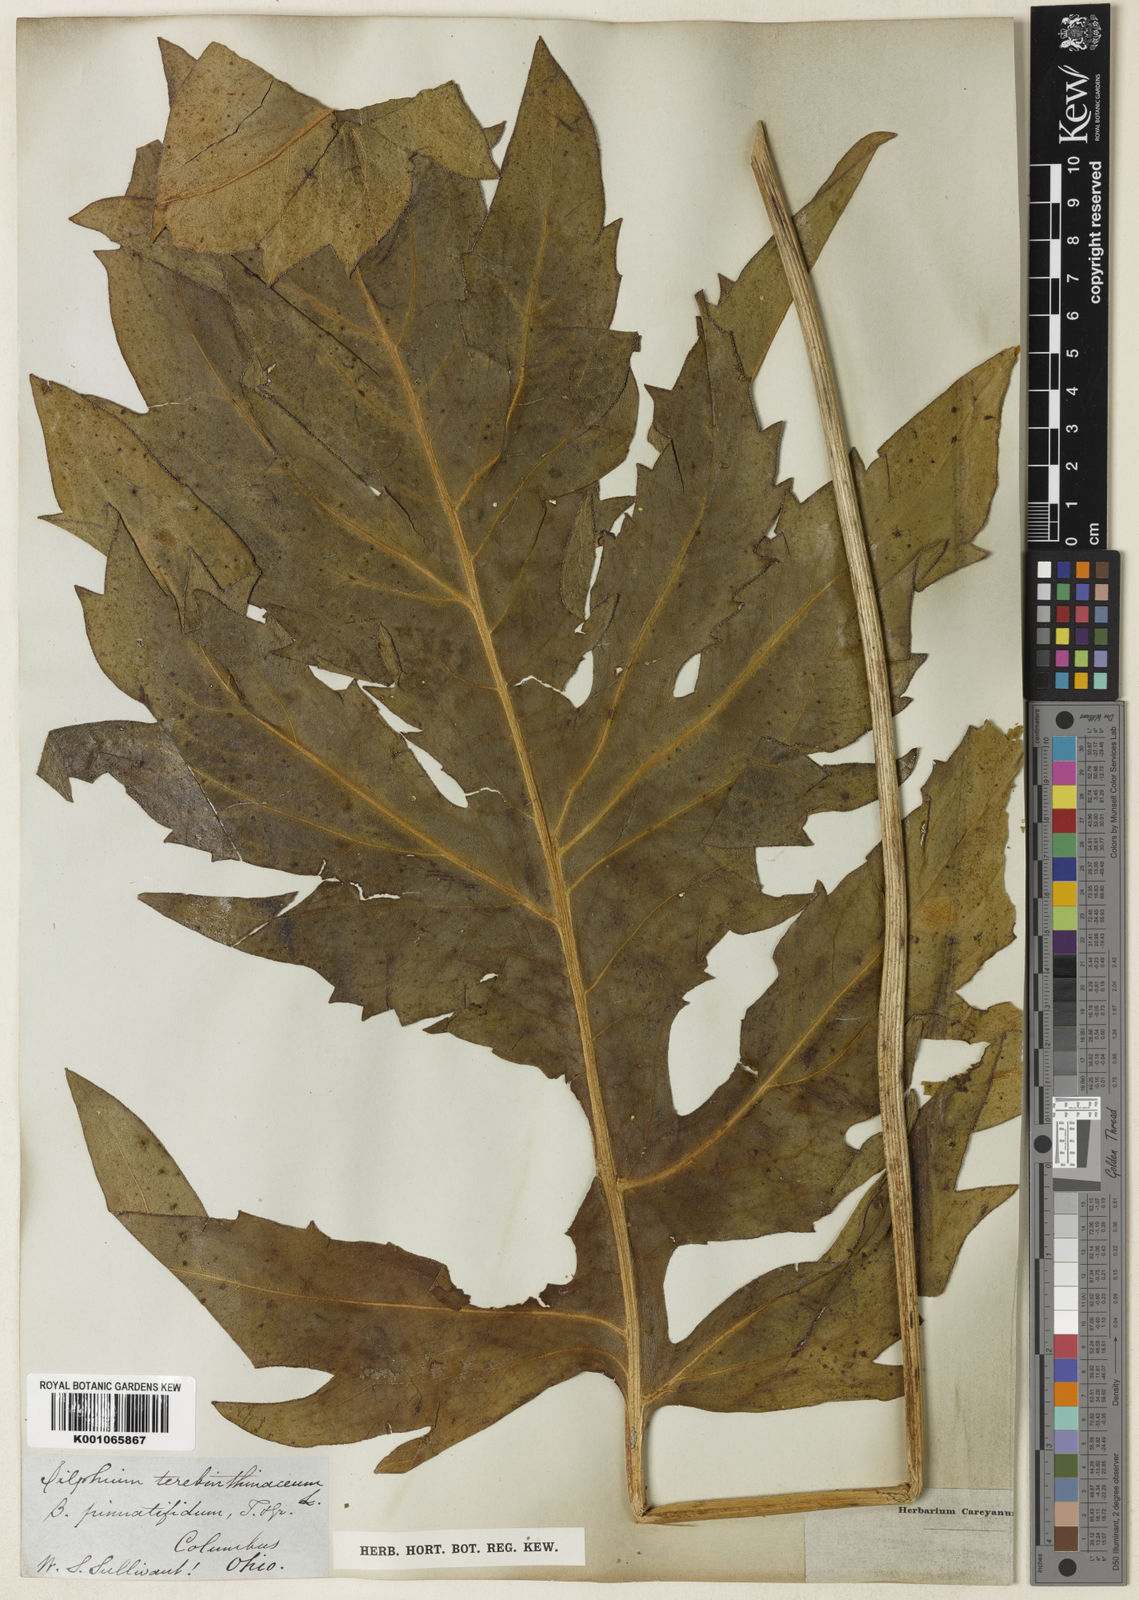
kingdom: Plantae
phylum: Tracheophyta
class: Magnoliopsida
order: Asterales
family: Asteraceae
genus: Silphium
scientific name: Silphium terebinthinaceum
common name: Basal-leaf rosinweed
